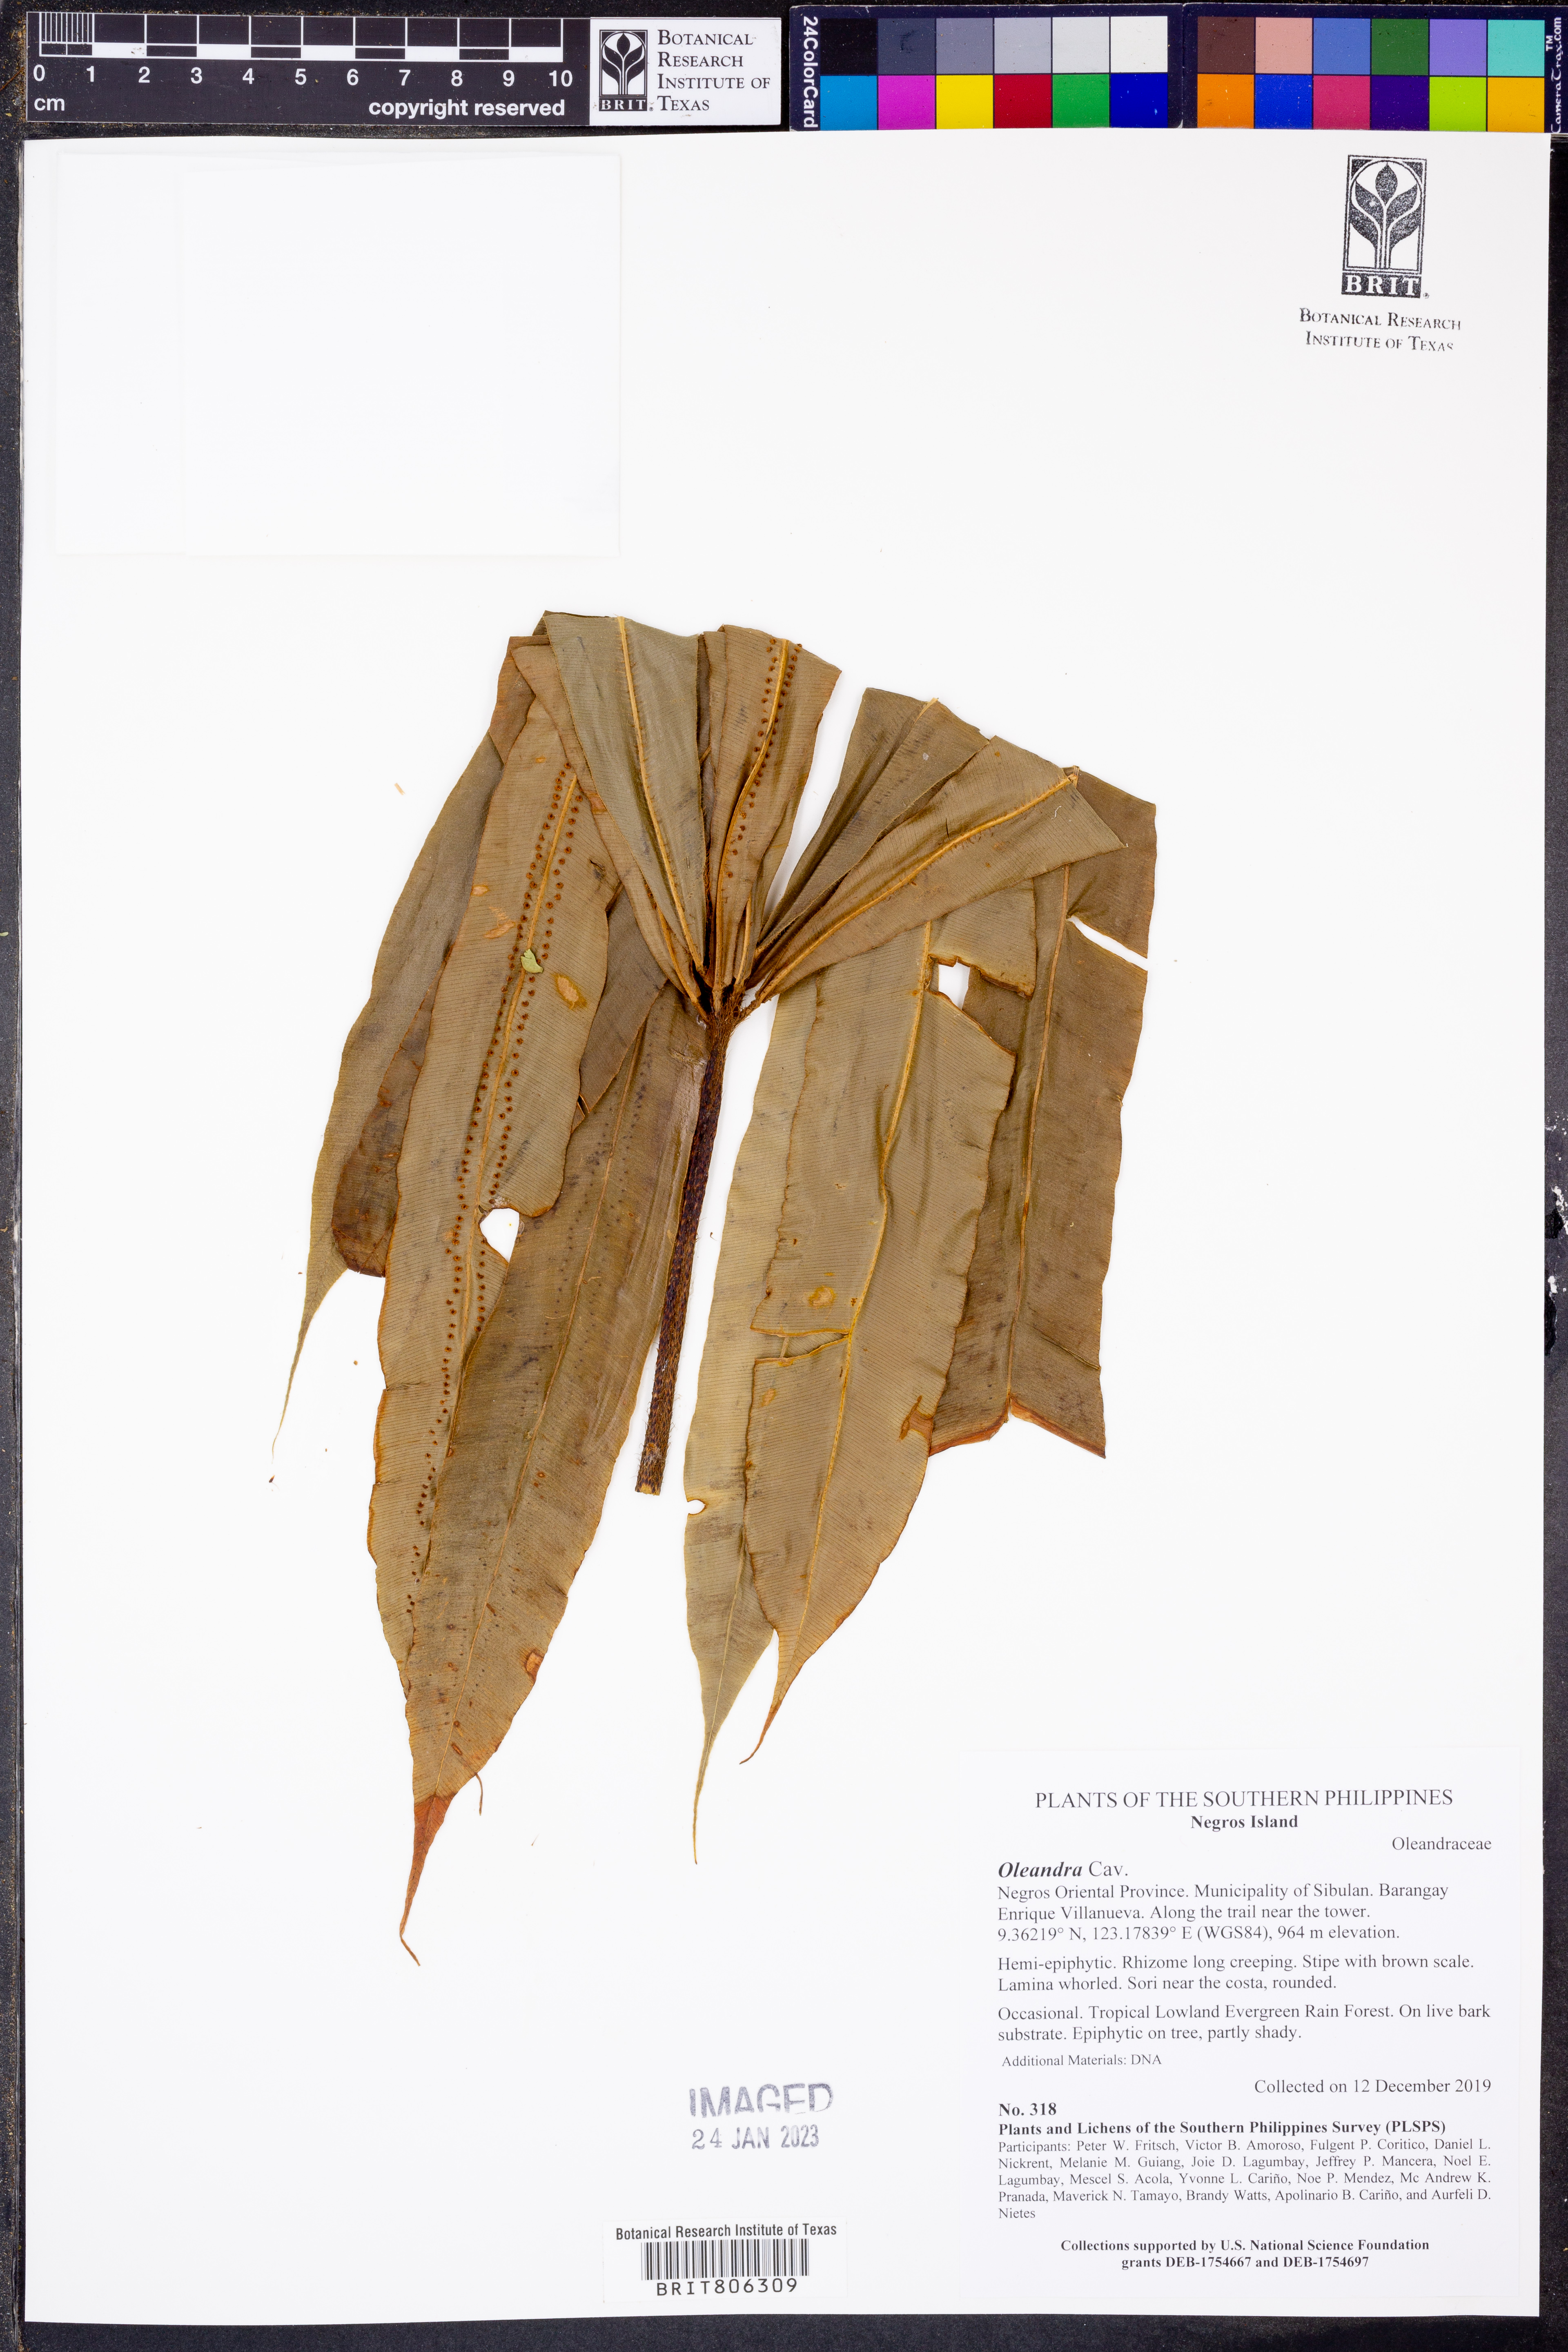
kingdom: Plantae
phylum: Tracheophyta
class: Polypodiopsida
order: Polypodiales
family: Oleandraceae
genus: Oleandra
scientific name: Oleandra
